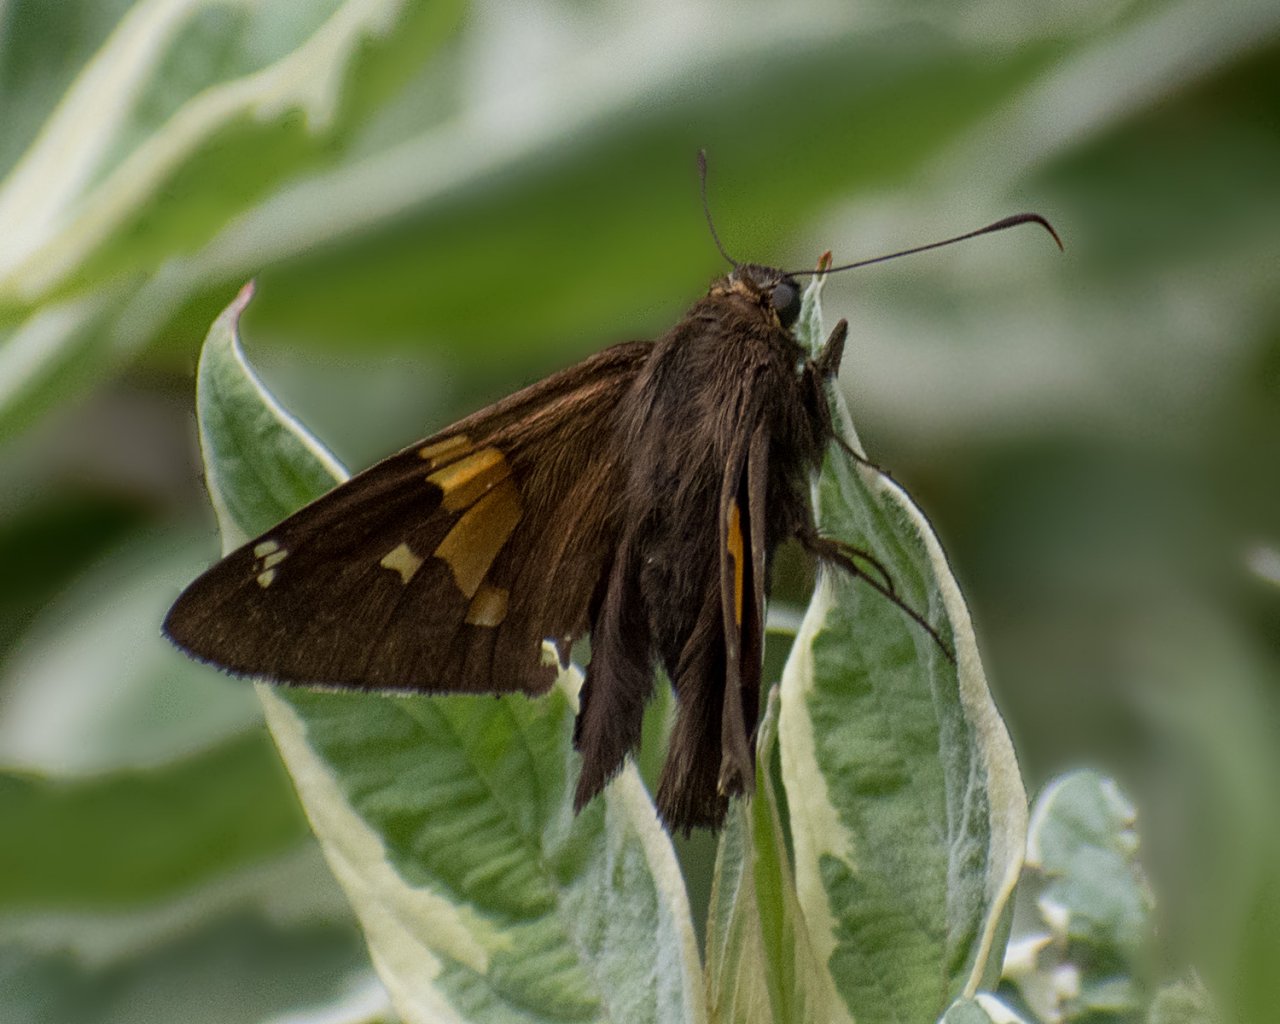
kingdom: Animalia
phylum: Arthropoda
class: Insecta
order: Lepidoptera
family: Hesperiidae
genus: Epargyreus
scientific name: Epargyreus clarus
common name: Silver-spotted Skipper
